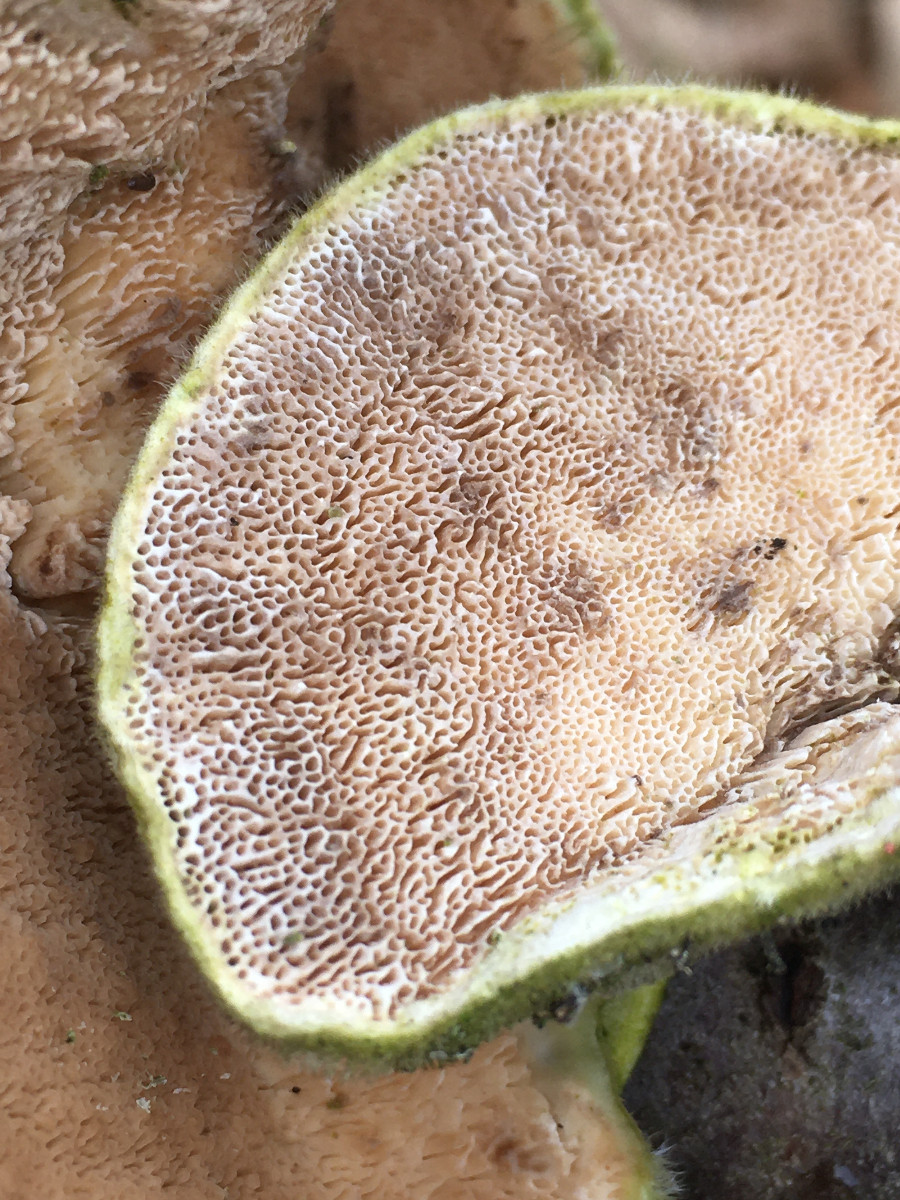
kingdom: Fungi
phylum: Basidiomycota
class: Agaricomycetes
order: Polyporales
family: Polyporaceae
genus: Trametes
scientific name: Trametes hirsuta
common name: håret læderporesvamp
